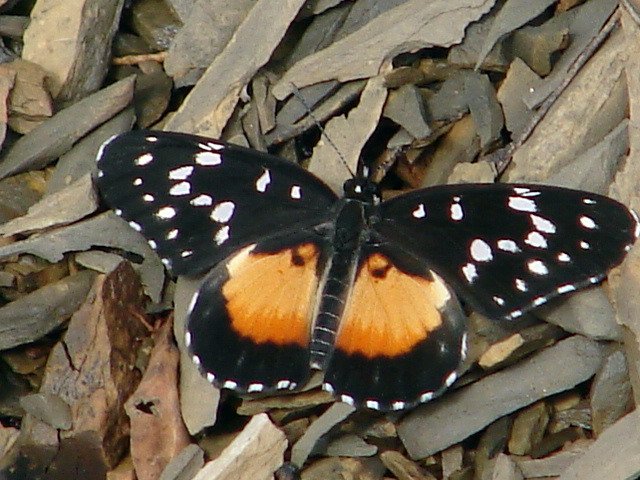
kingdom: Animalia
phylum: Arthropoda
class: Insecta
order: Lepidoptera
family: Nymphalidae
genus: Chlosyne
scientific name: Chlosyne rosita
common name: Rosita Patch
